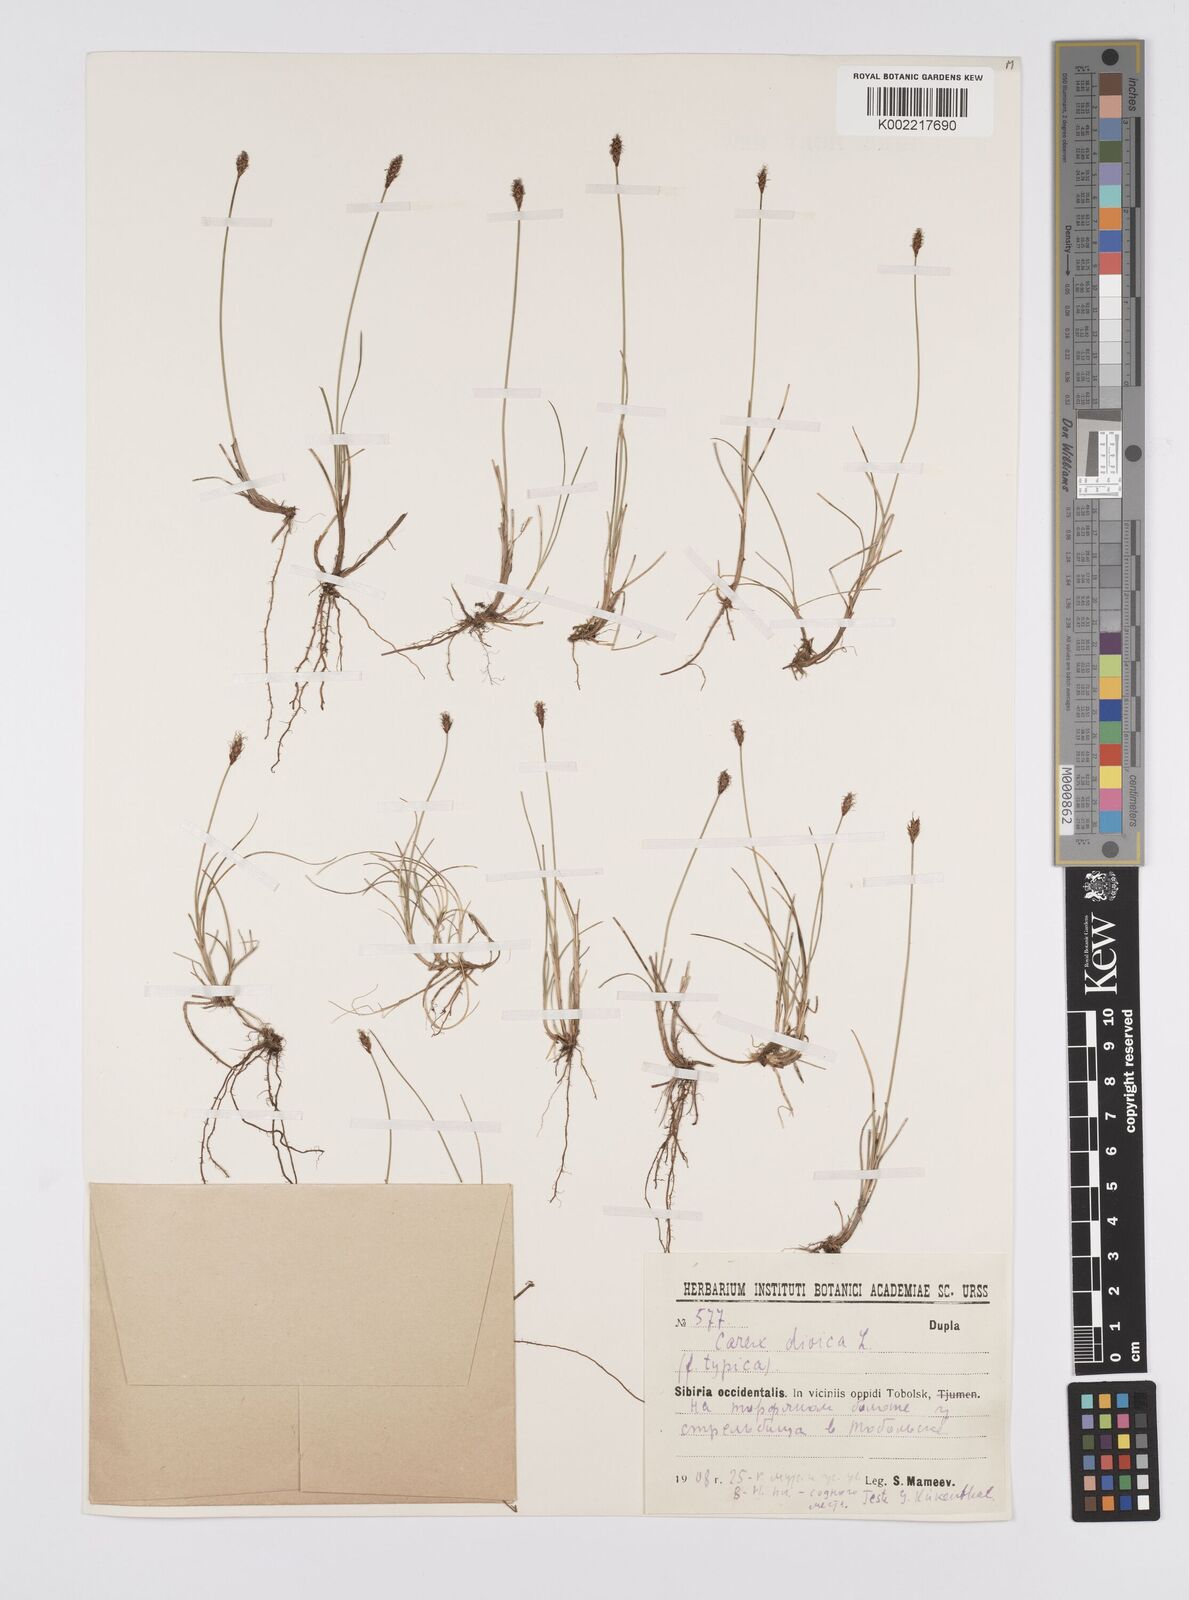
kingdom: Plantae
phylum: Tracheophyta
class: Liliopsida
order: Poales
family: Cyperaceae
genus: Carex
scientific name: Carex dioica
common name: Dioecious sedge
